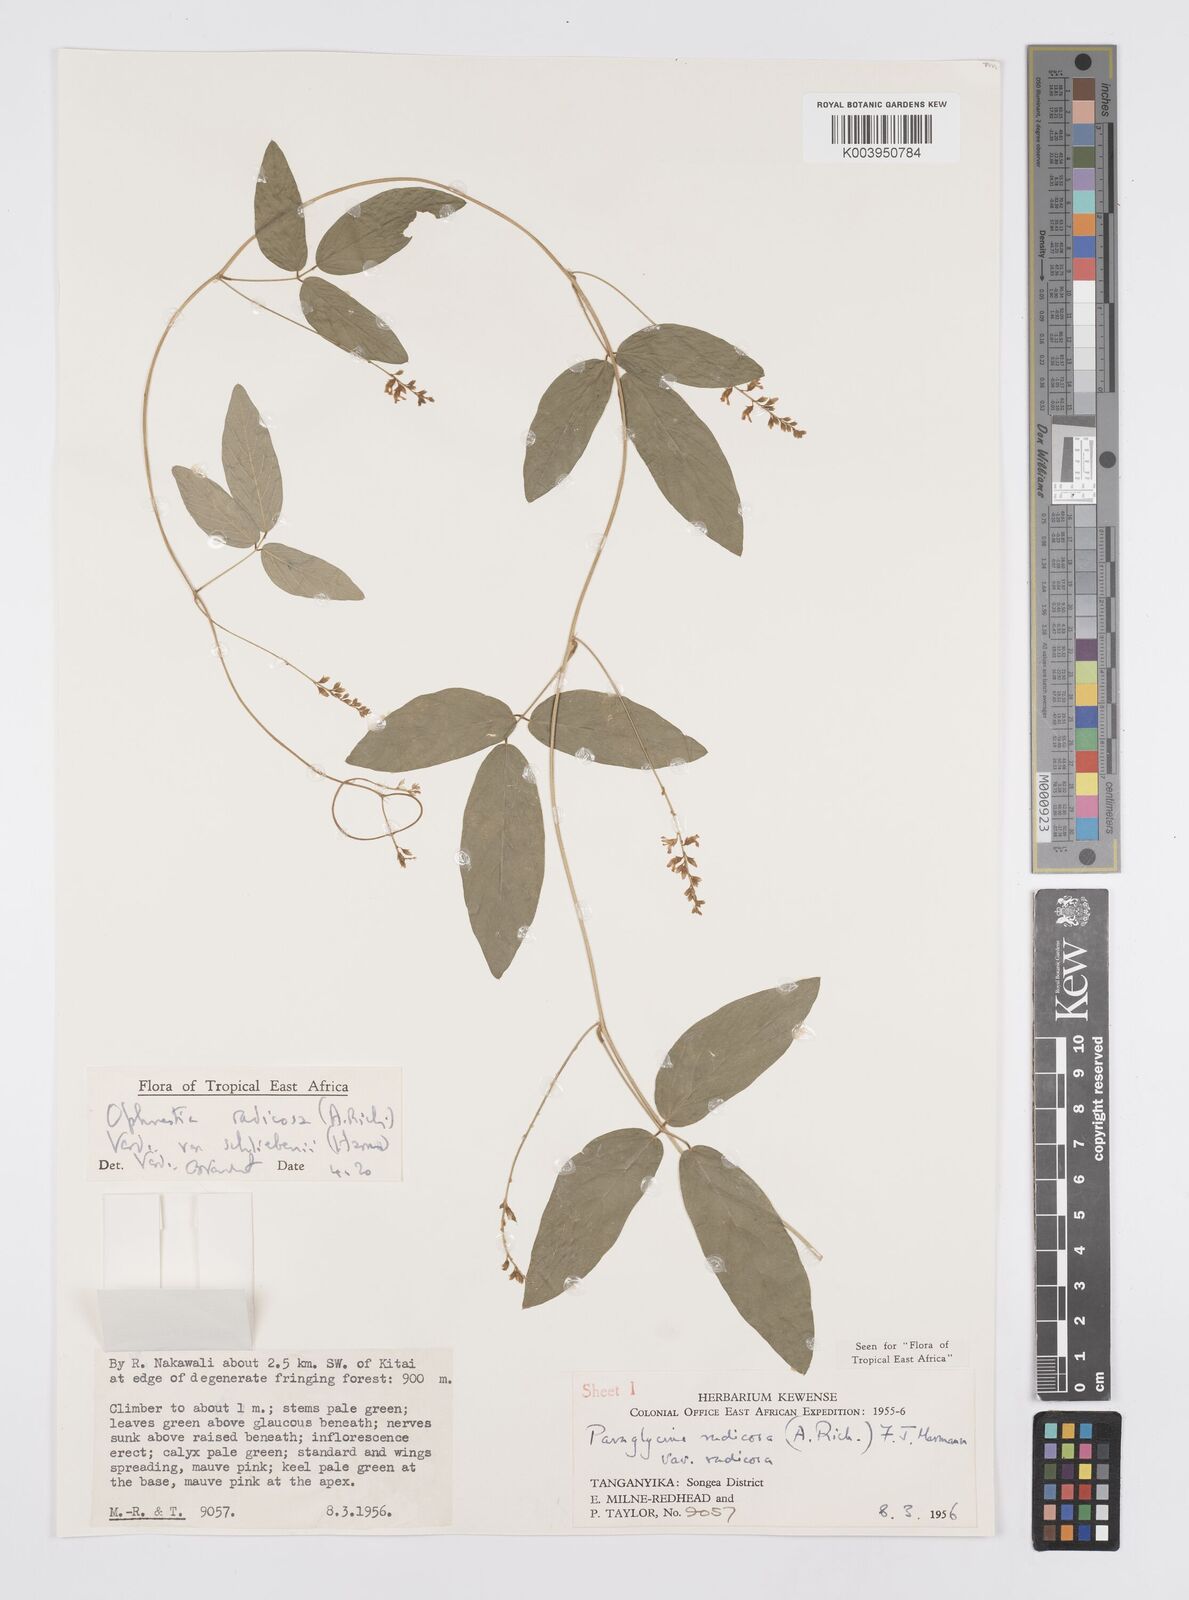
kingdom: Plantae
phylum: Tracheophyta
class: Magnoliopsida
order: Fabales
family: Fabaceae
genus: Ophrestia
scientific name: Ophrestia radicosa
